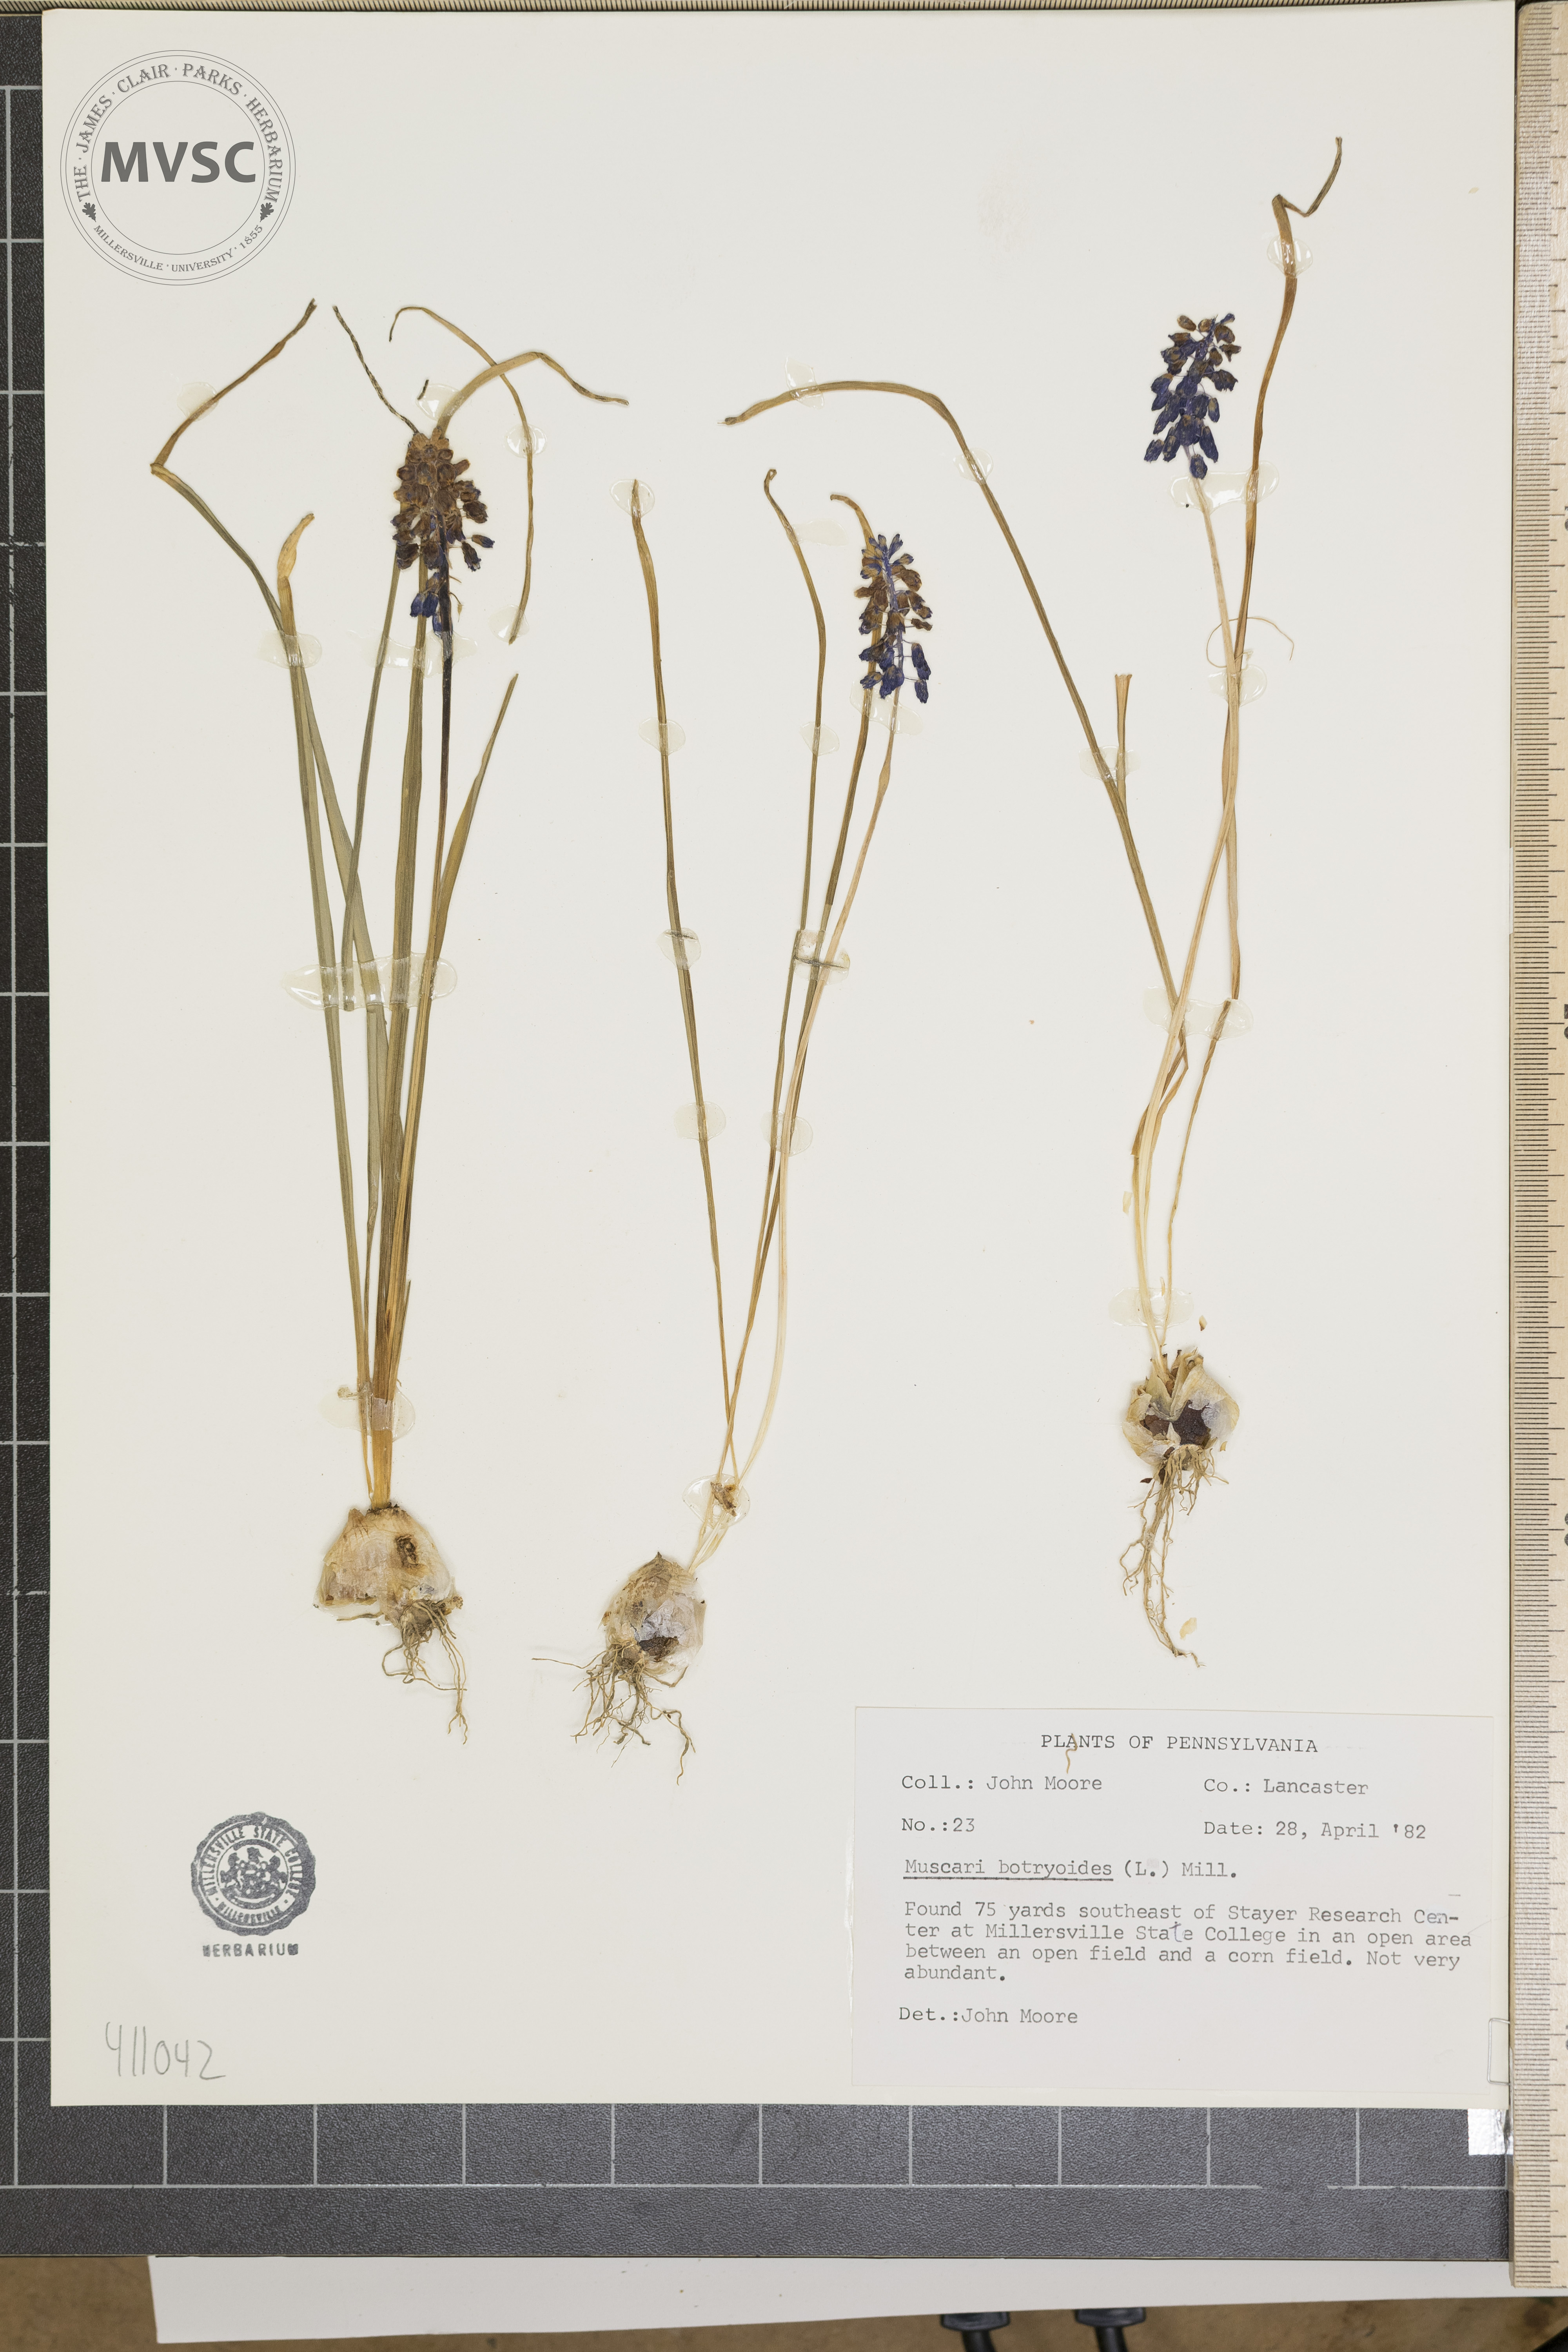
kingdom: Plantae
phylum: Tracheophyta
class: Liliopsida
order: Asparagales
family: Asparagaceae
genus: Muscari
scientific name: Muscari botryoides
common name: Compact grape-hyacinth
